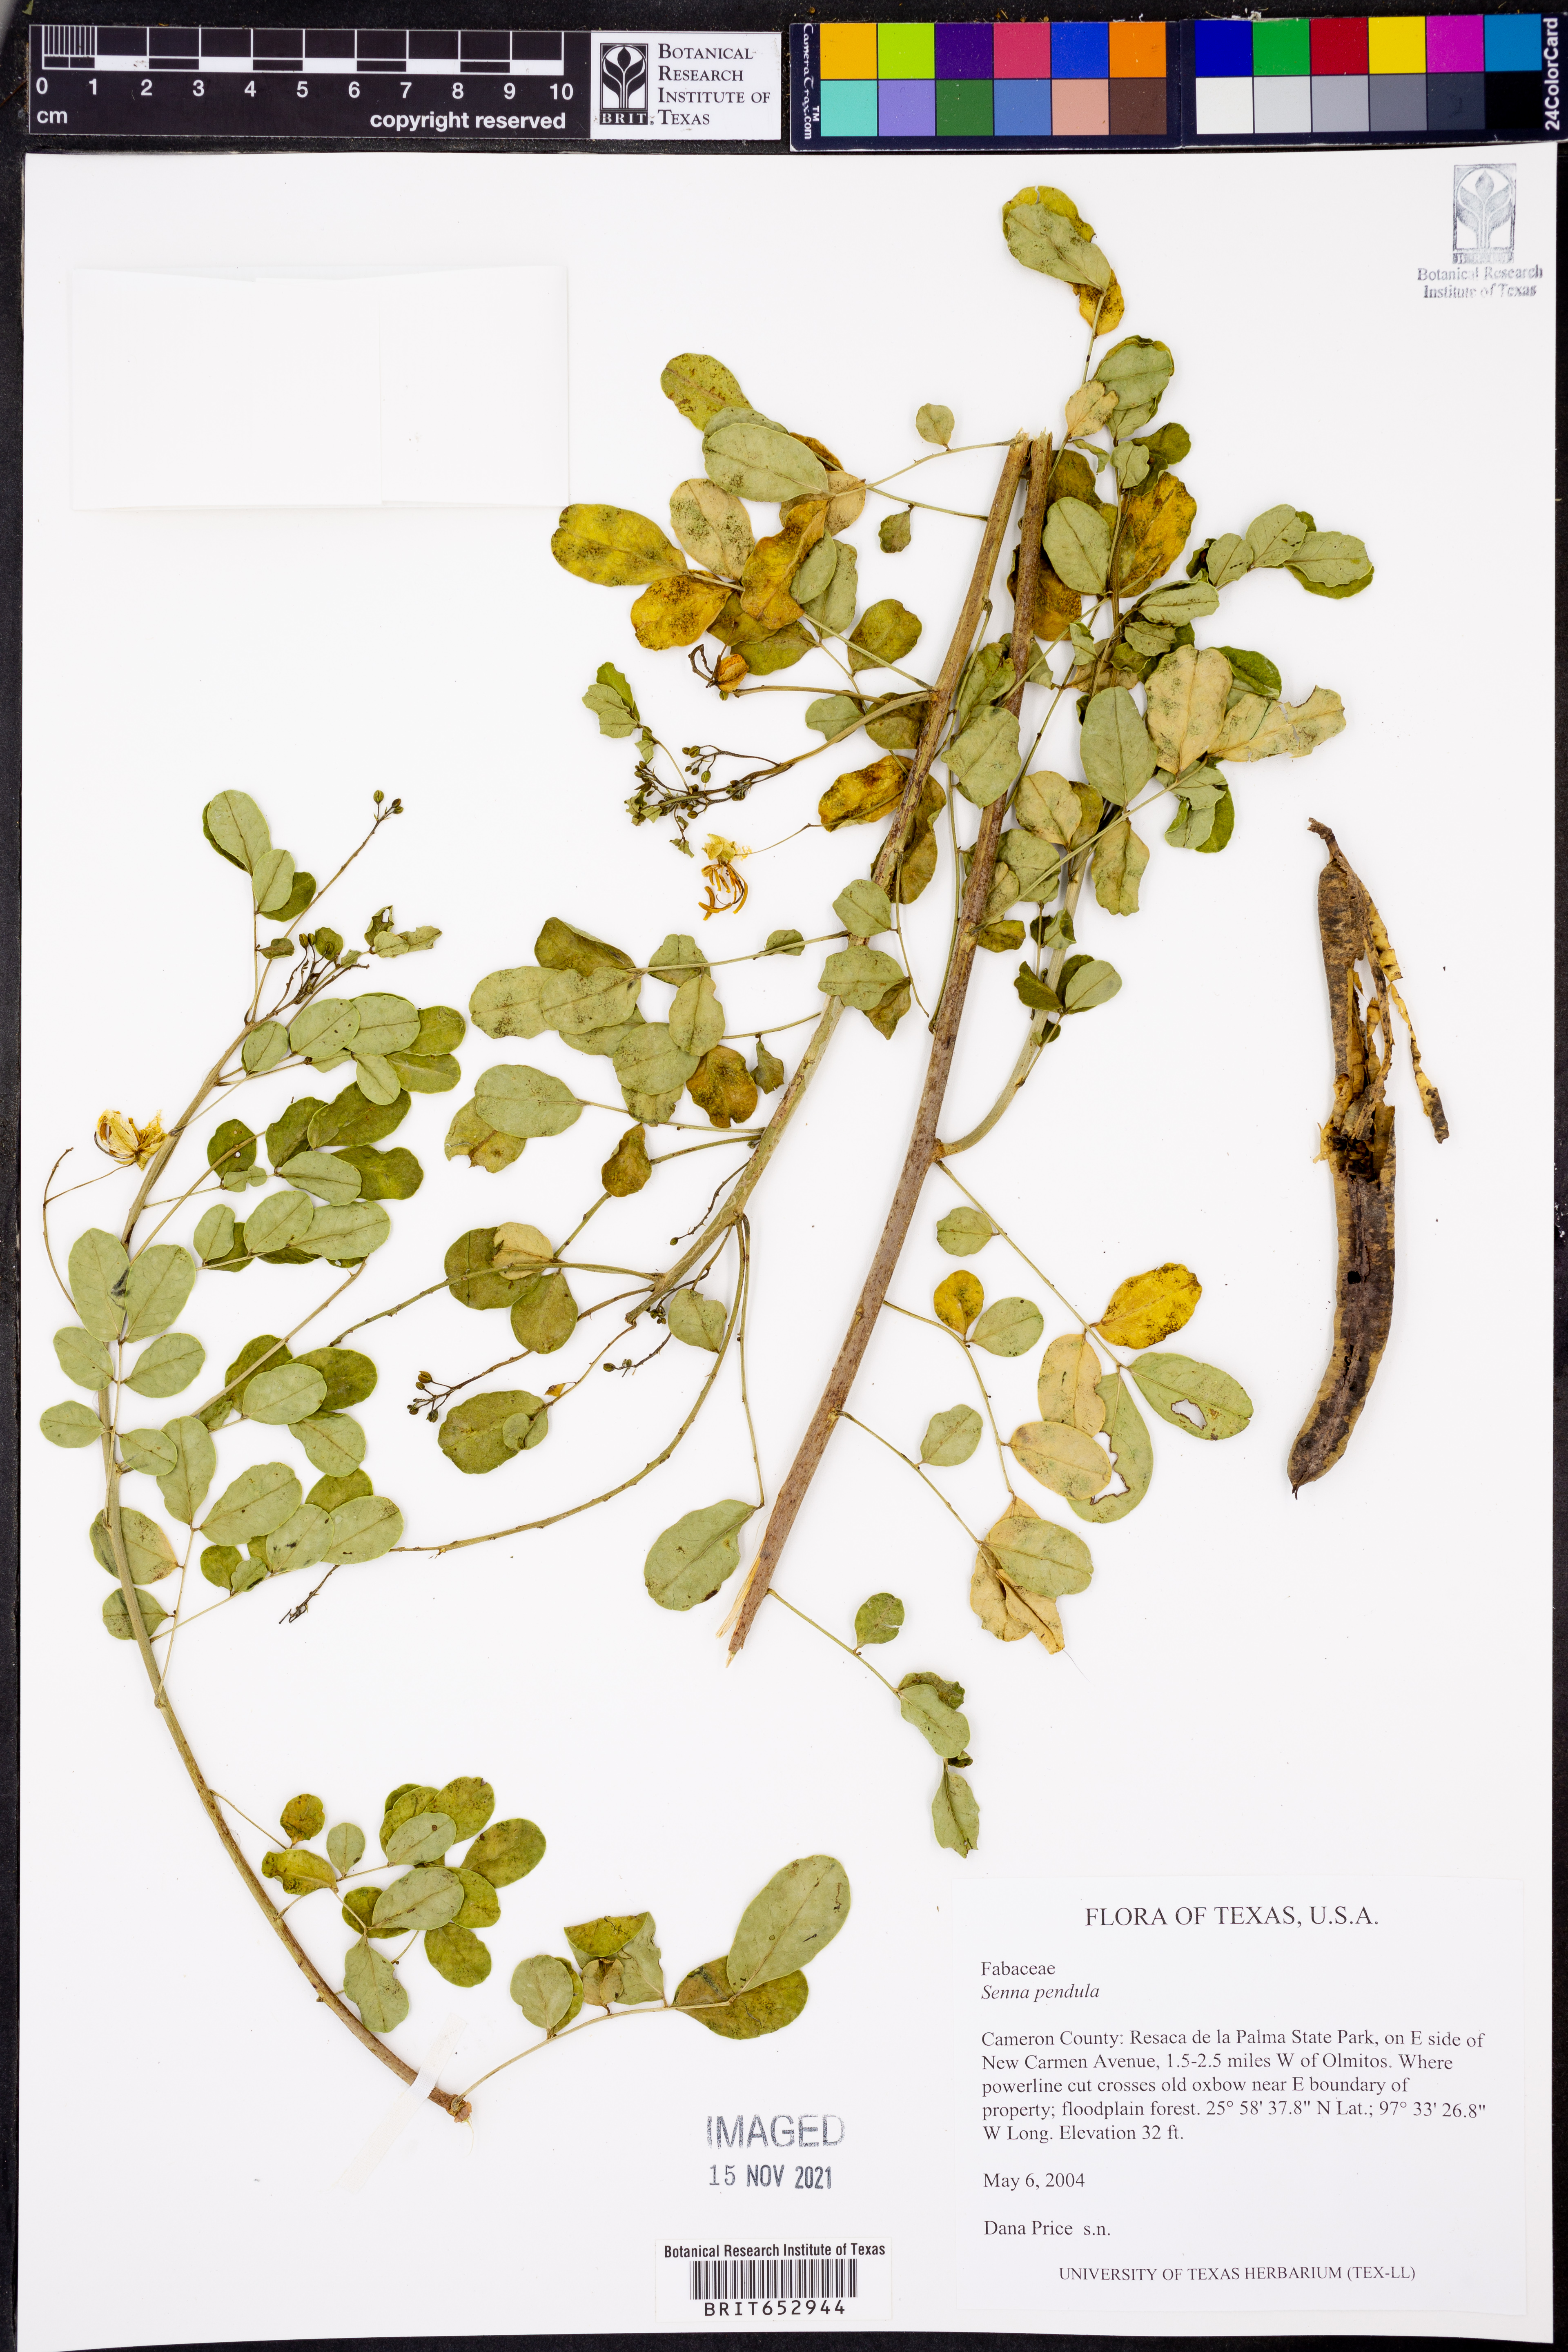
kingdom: Plantae
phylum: Tracheophyta
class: Magnoliopsida
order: Fabales
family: Fabaceae
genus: Senna
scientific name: Senna pendula
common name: Easter cassia
